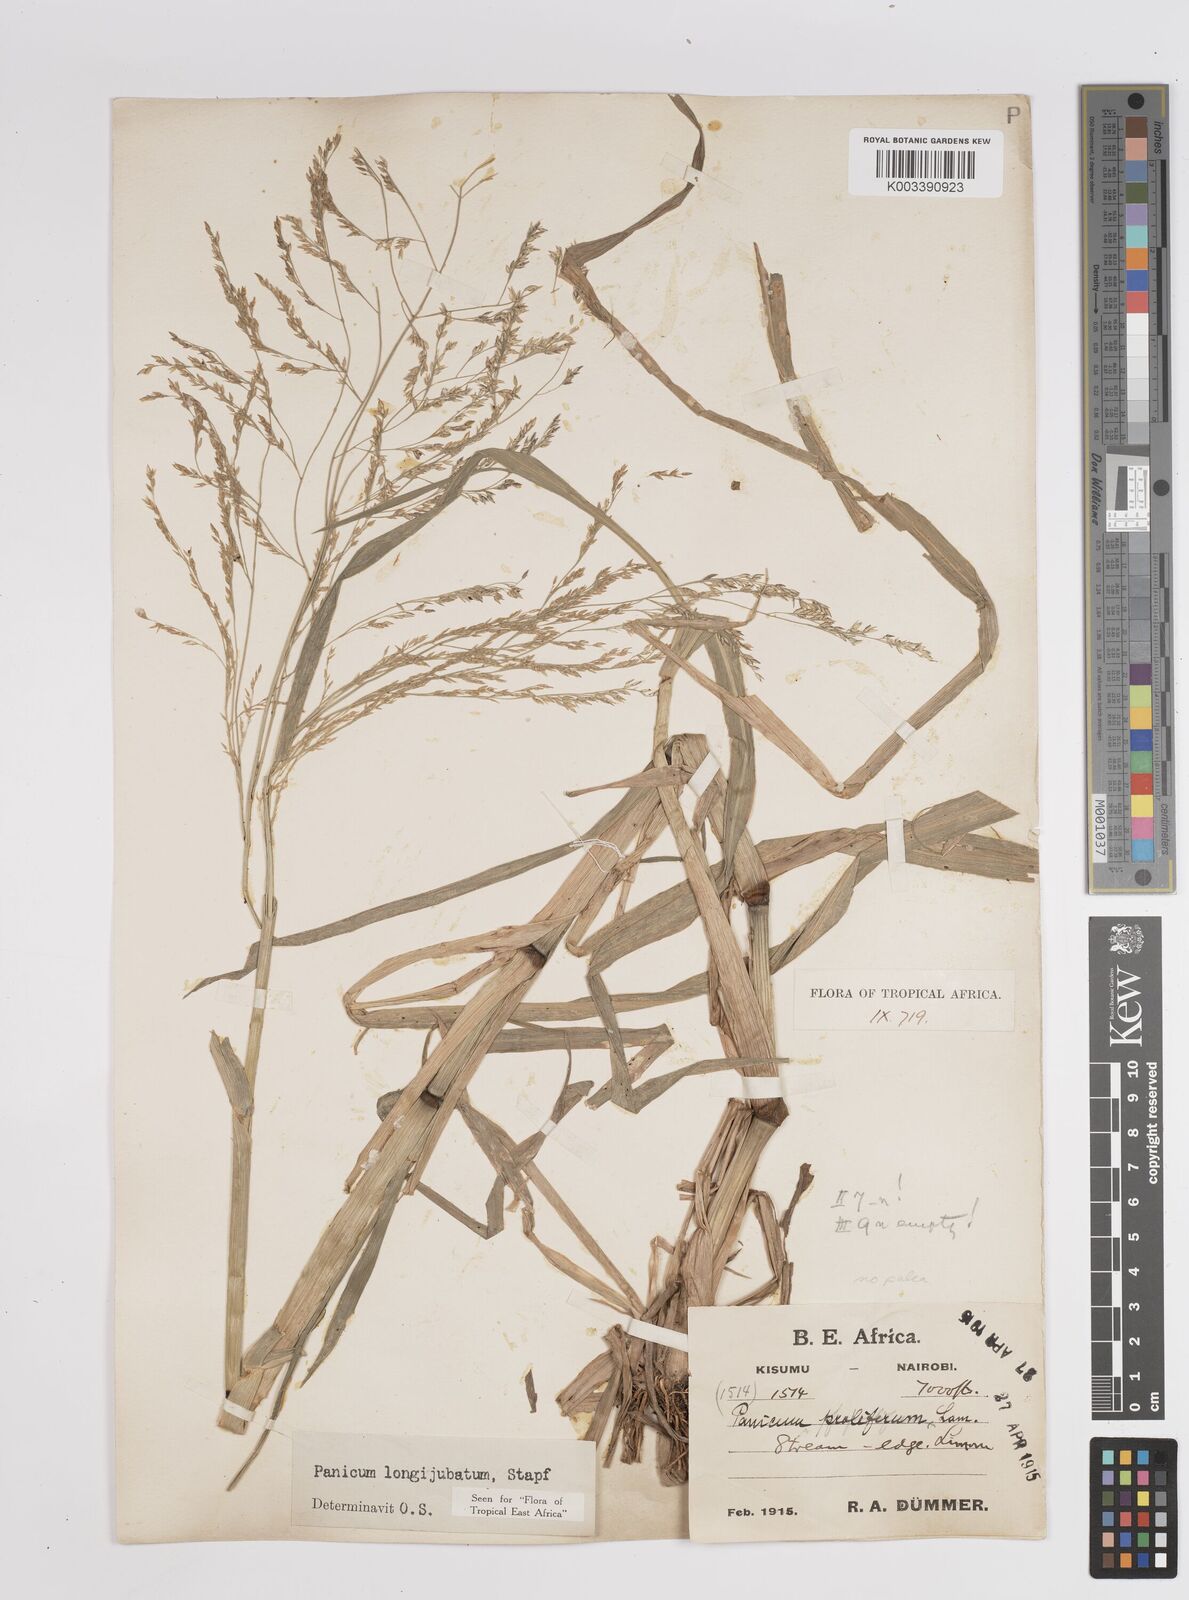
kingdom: Plantae
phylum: Tracheophyta
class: Liliopsida
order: Poales
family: Poaceae
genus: Panicum
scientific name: Panicum subalbidum
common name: Elbow buffalo grass
